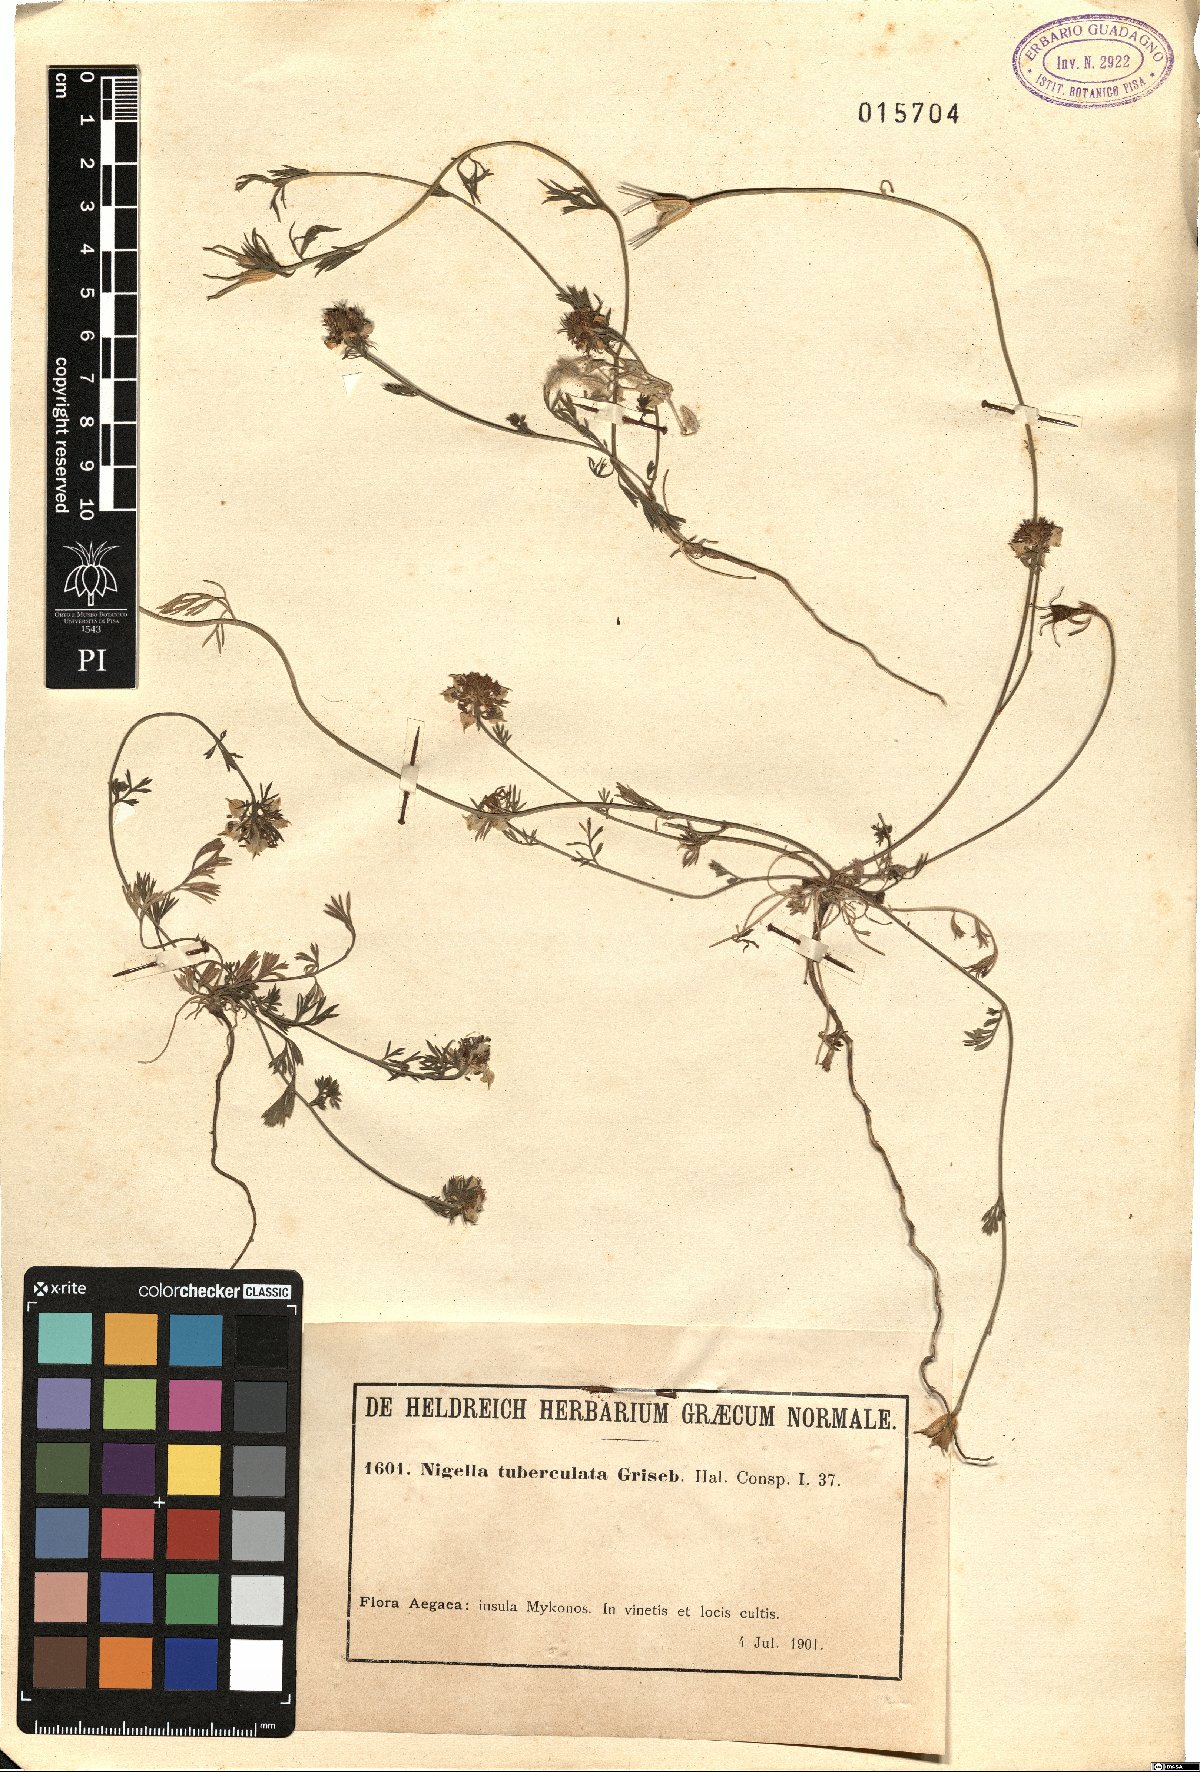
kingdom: Plantae
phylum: Tracheophyta
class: Magnoliopsida
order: Ranunculales
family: Ranunculaceae
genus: Nigella
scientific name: Nigella arvensis
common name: Wild fennel-flower
